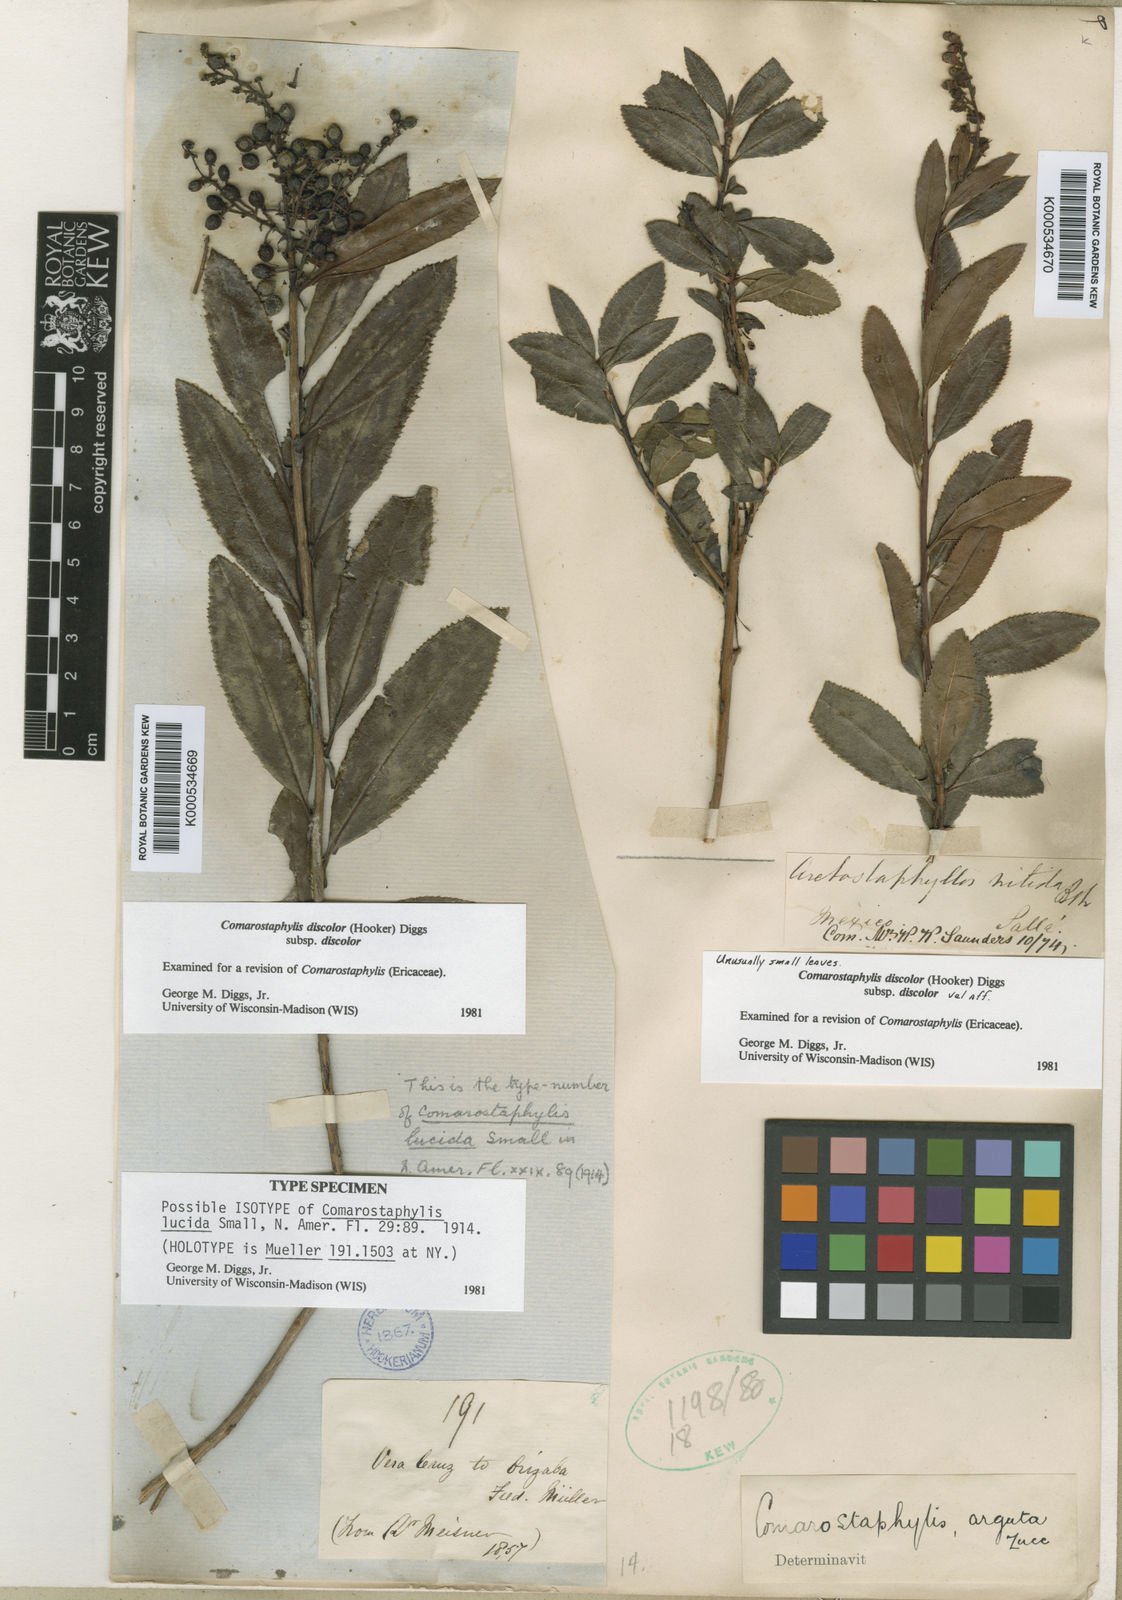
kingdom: Plantae
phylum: Tracheophyta
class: Magnoliopsida
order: Ericales
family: Ericaceae
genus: Comarostaphylis
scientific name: Comarostaphylis discolor
